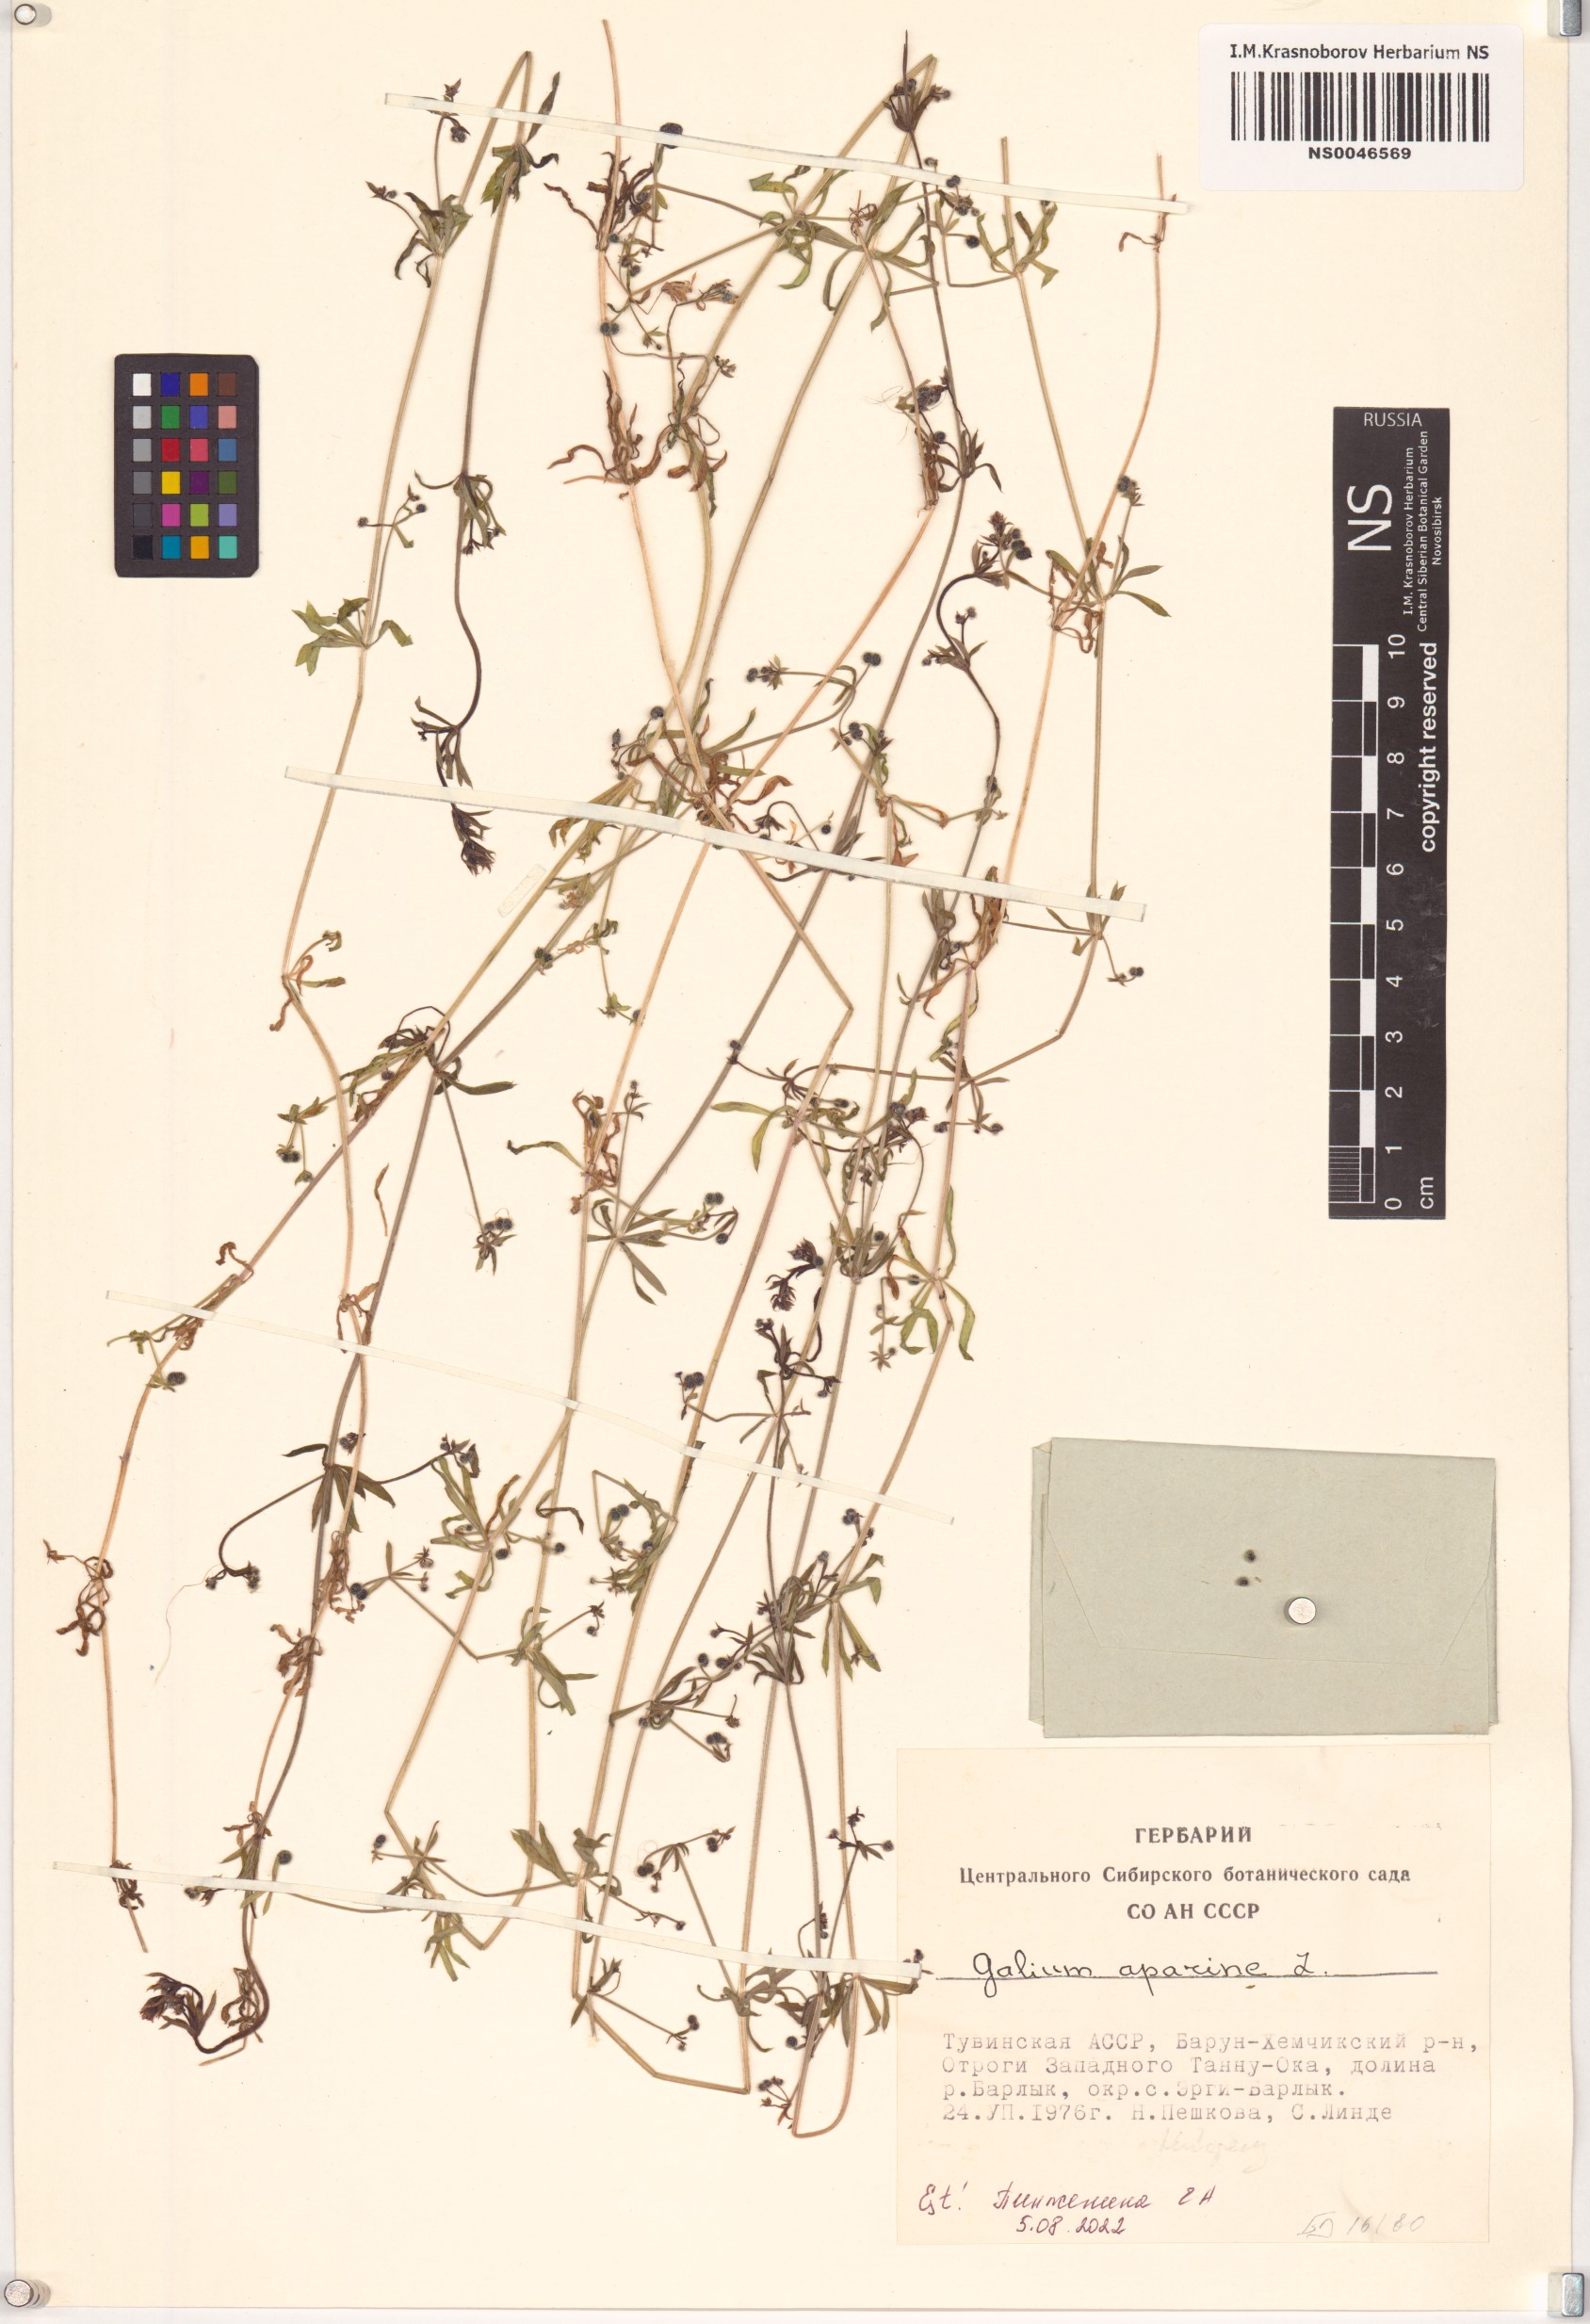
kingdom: Plantae
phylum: Tracheophyta
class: Magnoliopsida
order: Gentianales
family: Rubiaceae
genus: Galium
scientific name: Galium aparine
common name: Cleavers
